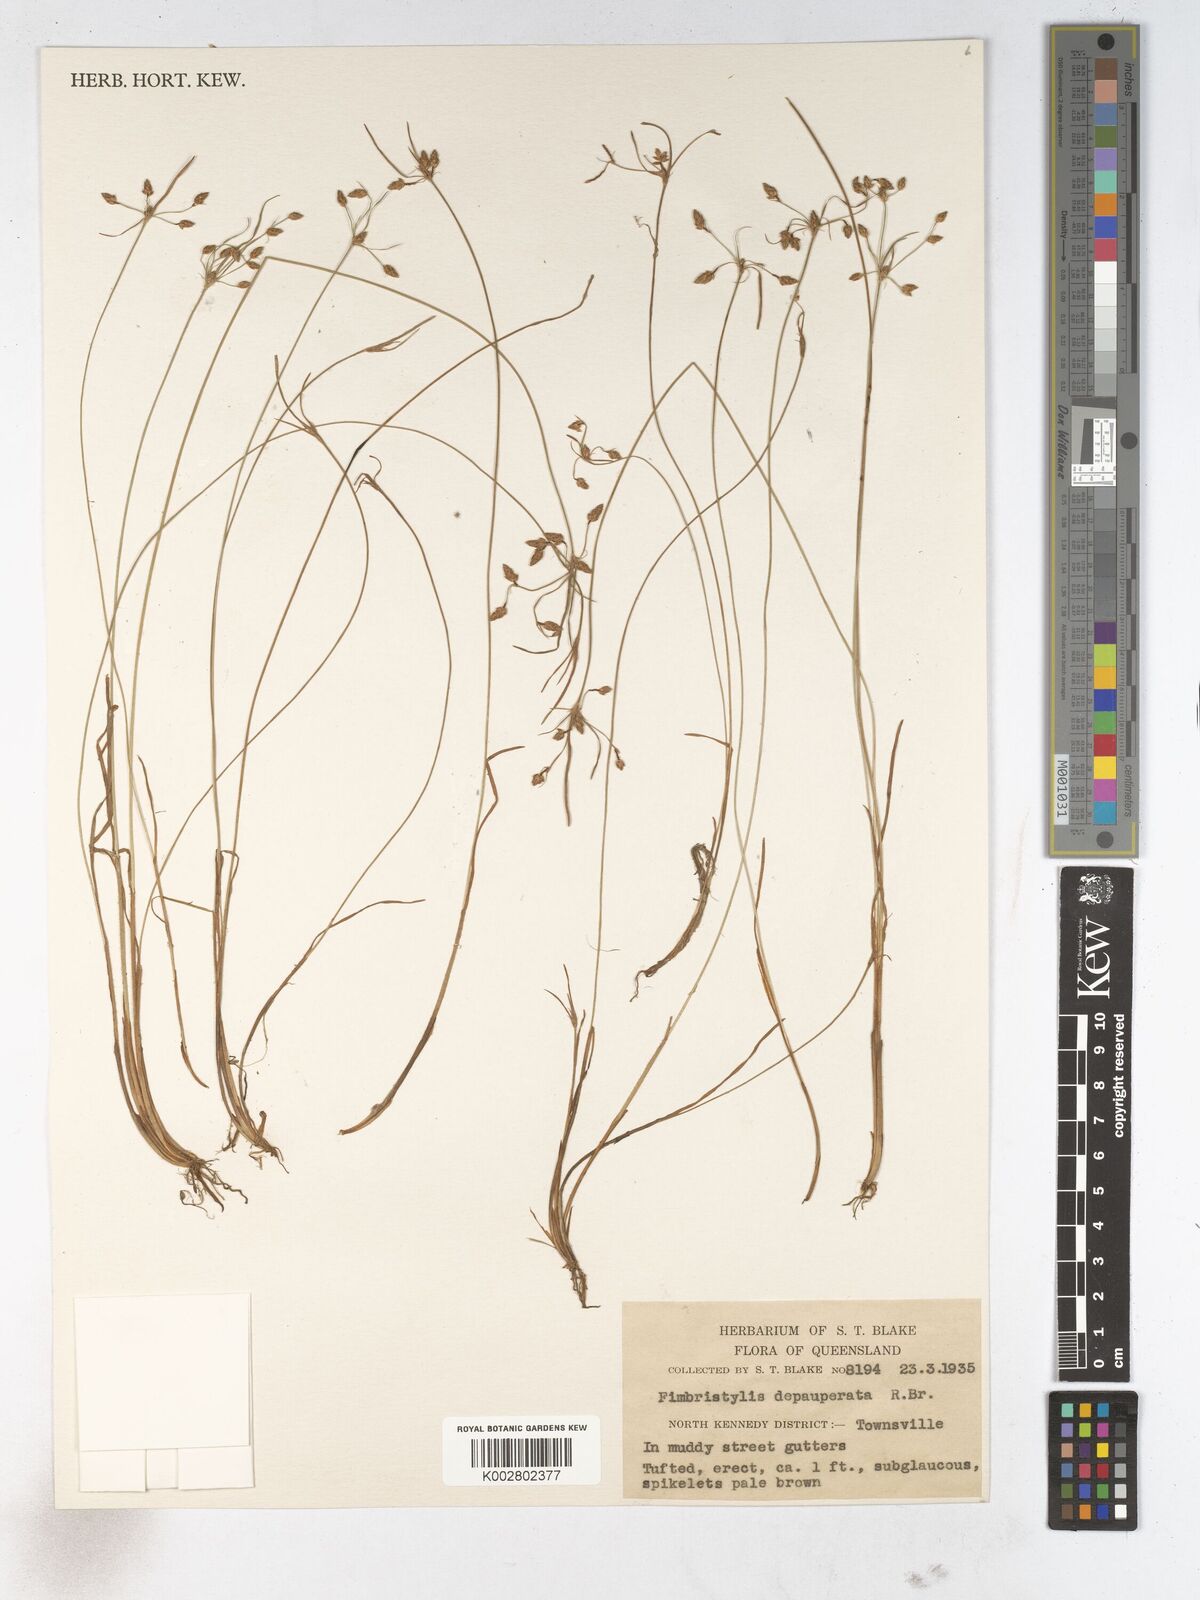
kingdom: Plantae
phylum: Tracheophyta
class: Liliopsida
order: Poales
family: Cyperaceae
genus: Fimbristylis
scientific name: Fimbristylis dichotoma
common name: Forked fimbry
